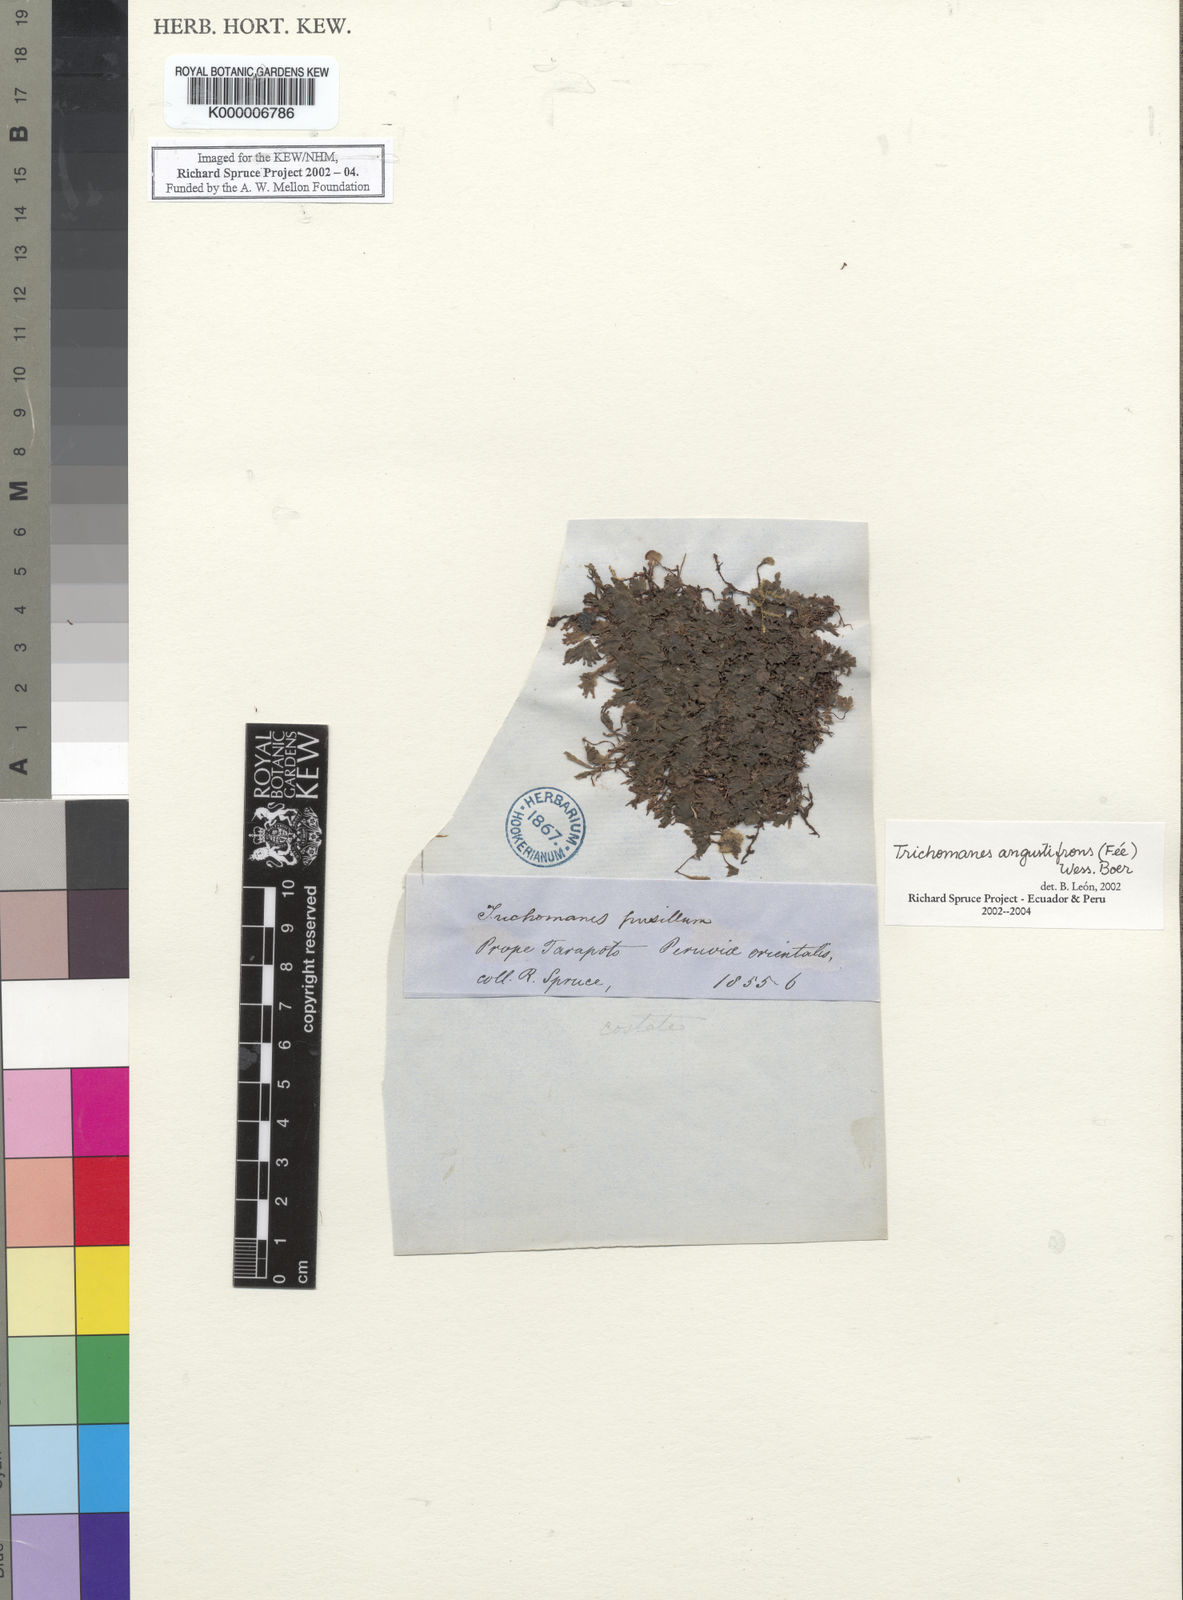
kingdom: Plantae
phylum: Tracheophyta
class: Polypodiopsida
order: Hymenophyllales
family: Hymenophyllaceae
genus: Trichomanes
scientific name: Trichomanes
